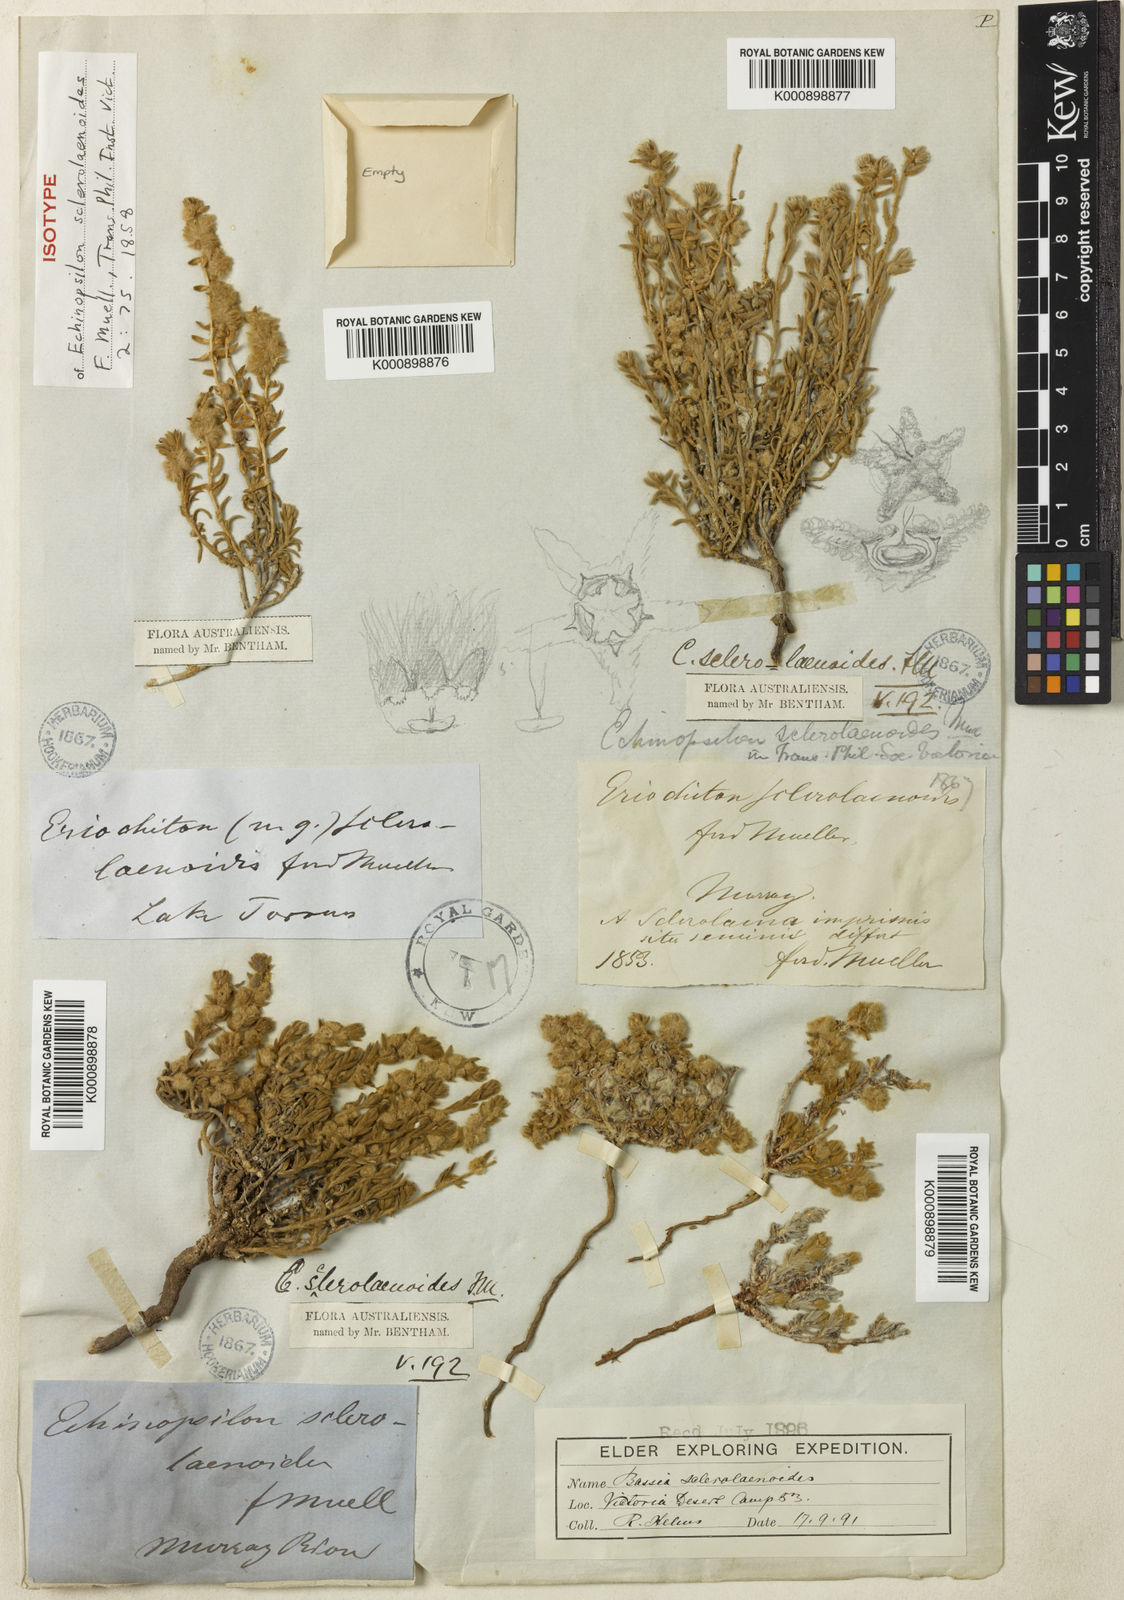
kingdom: Plantae
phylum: Tracheophyta
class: Magnoliopsida
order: Caryophyllales
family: Amaranthaceae
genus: Maireana
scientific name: Maireana sclerolaenoides
